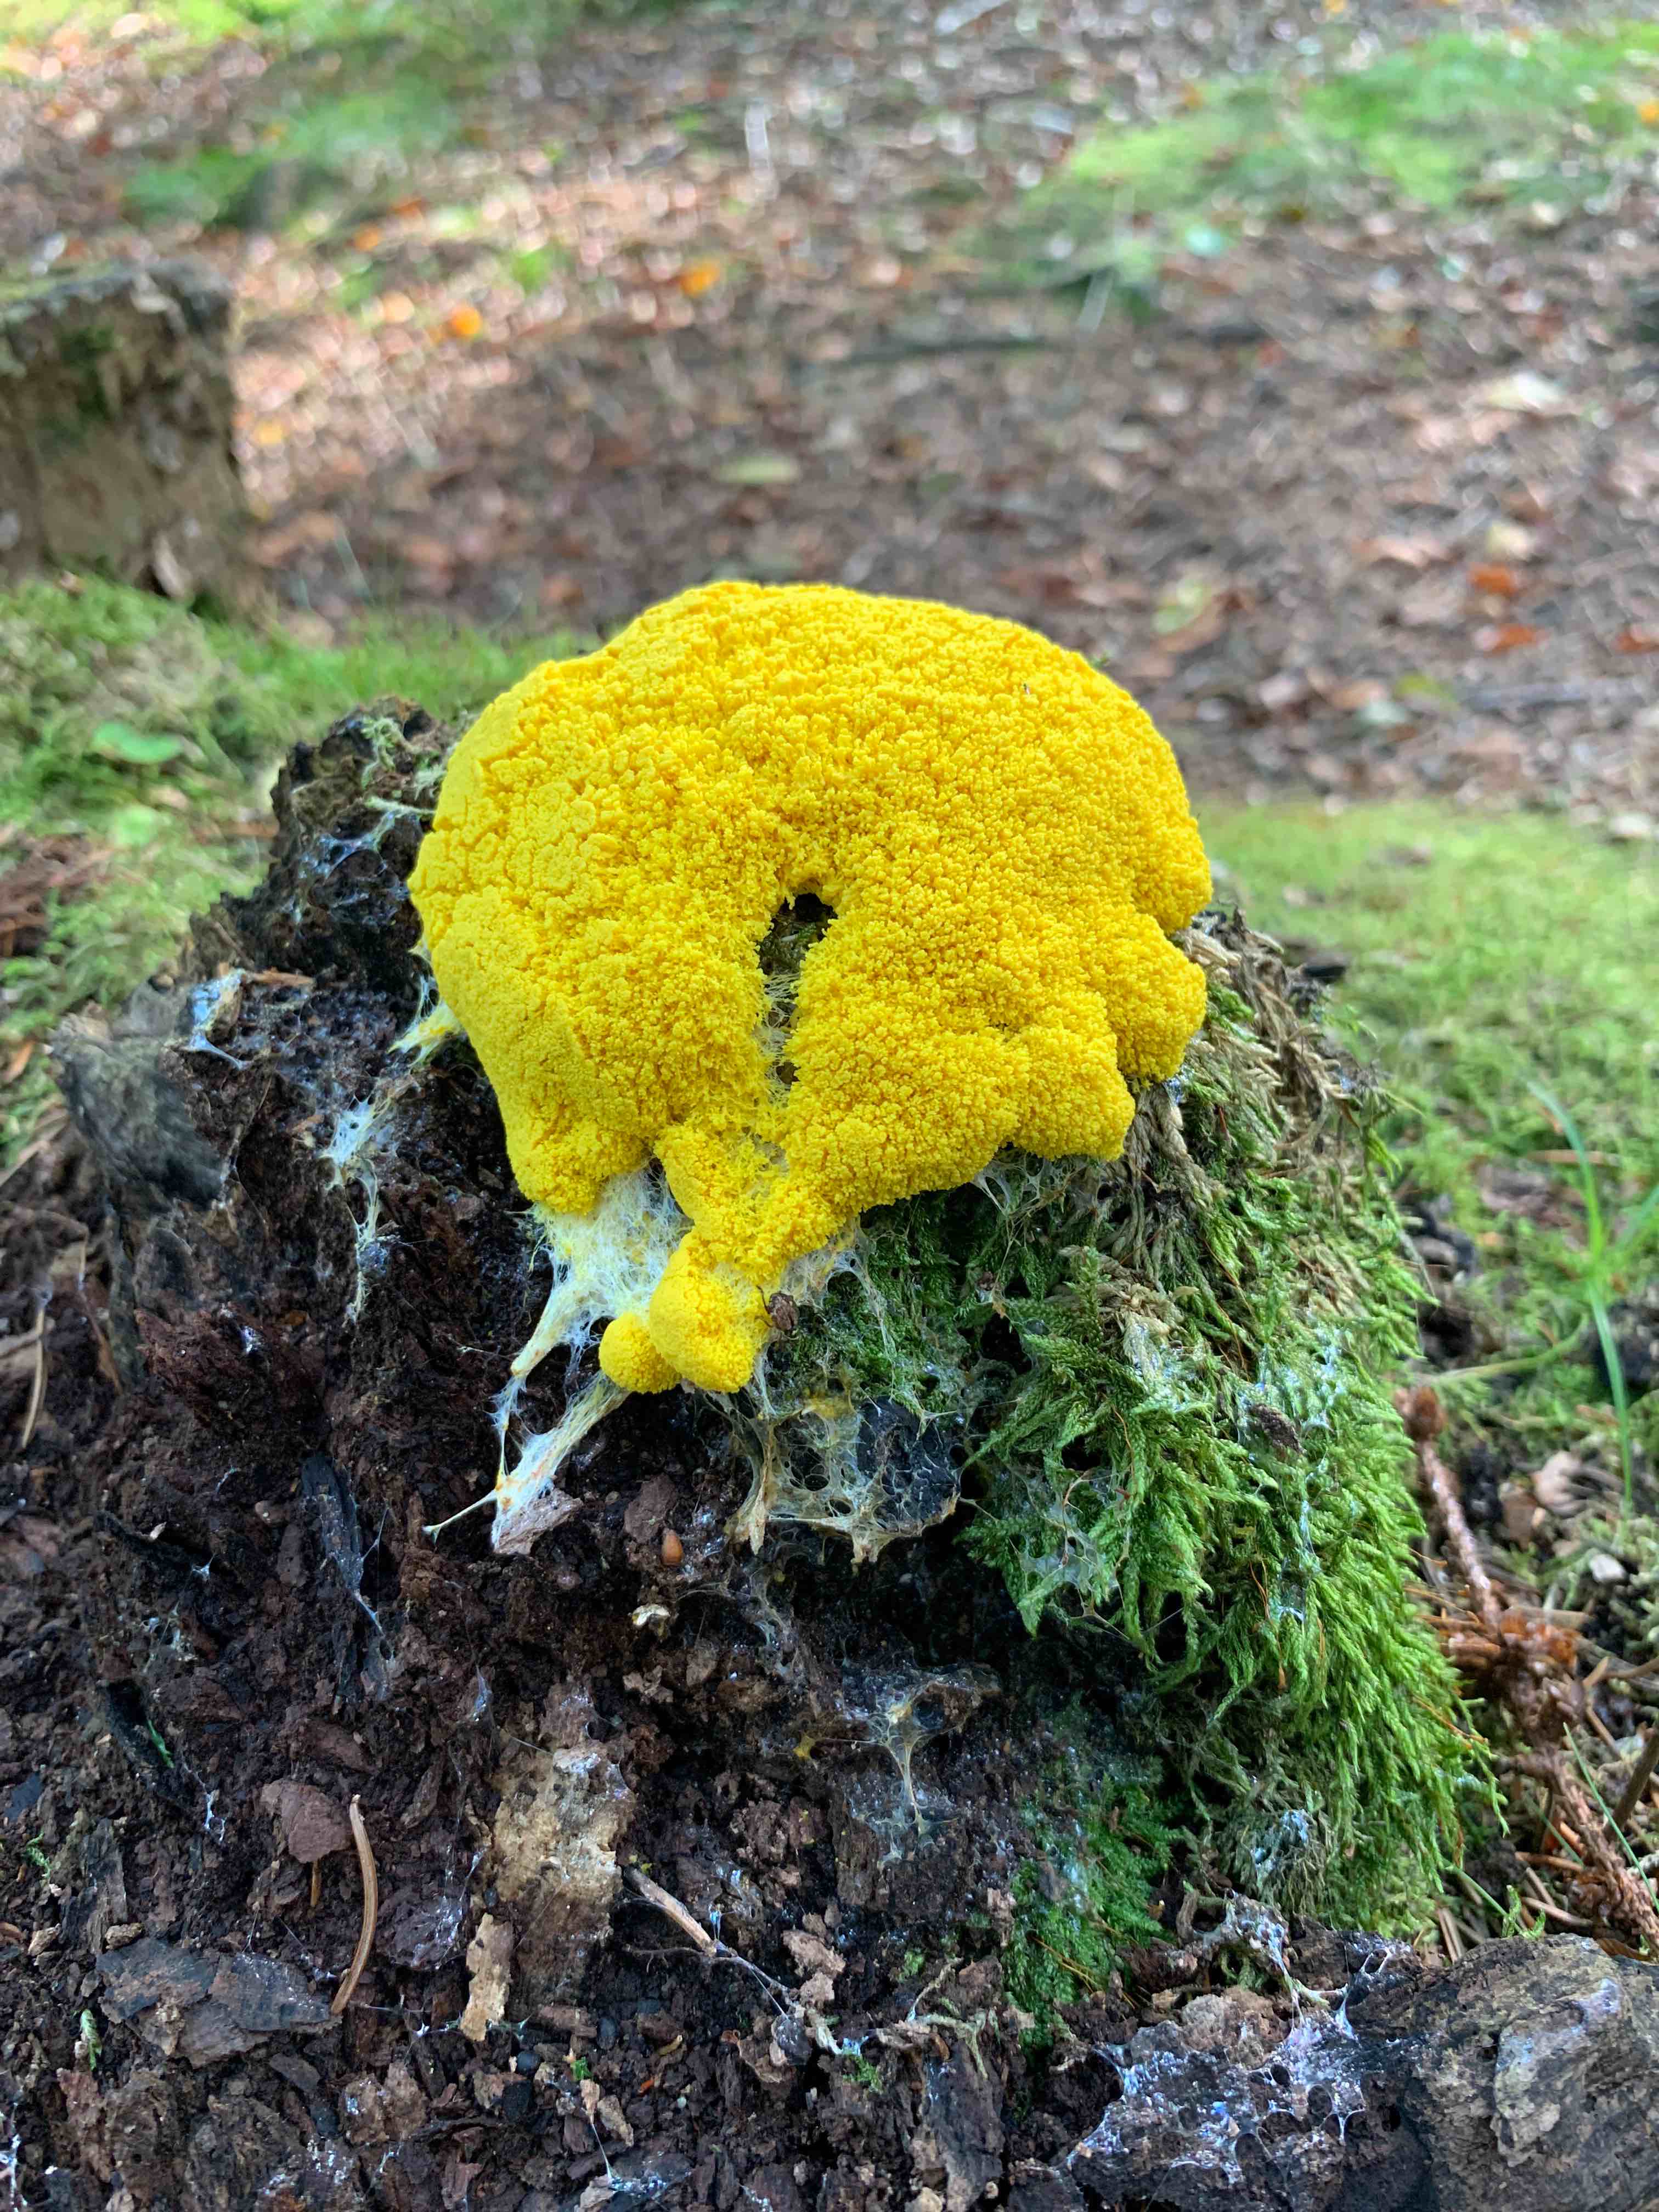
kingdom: Protozoa
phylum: Mycetozoa
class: Myxomycetes
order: Physarales
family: Physaraceae
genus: Fuligo
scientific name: Fuligo septica
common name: gul troldsmør
